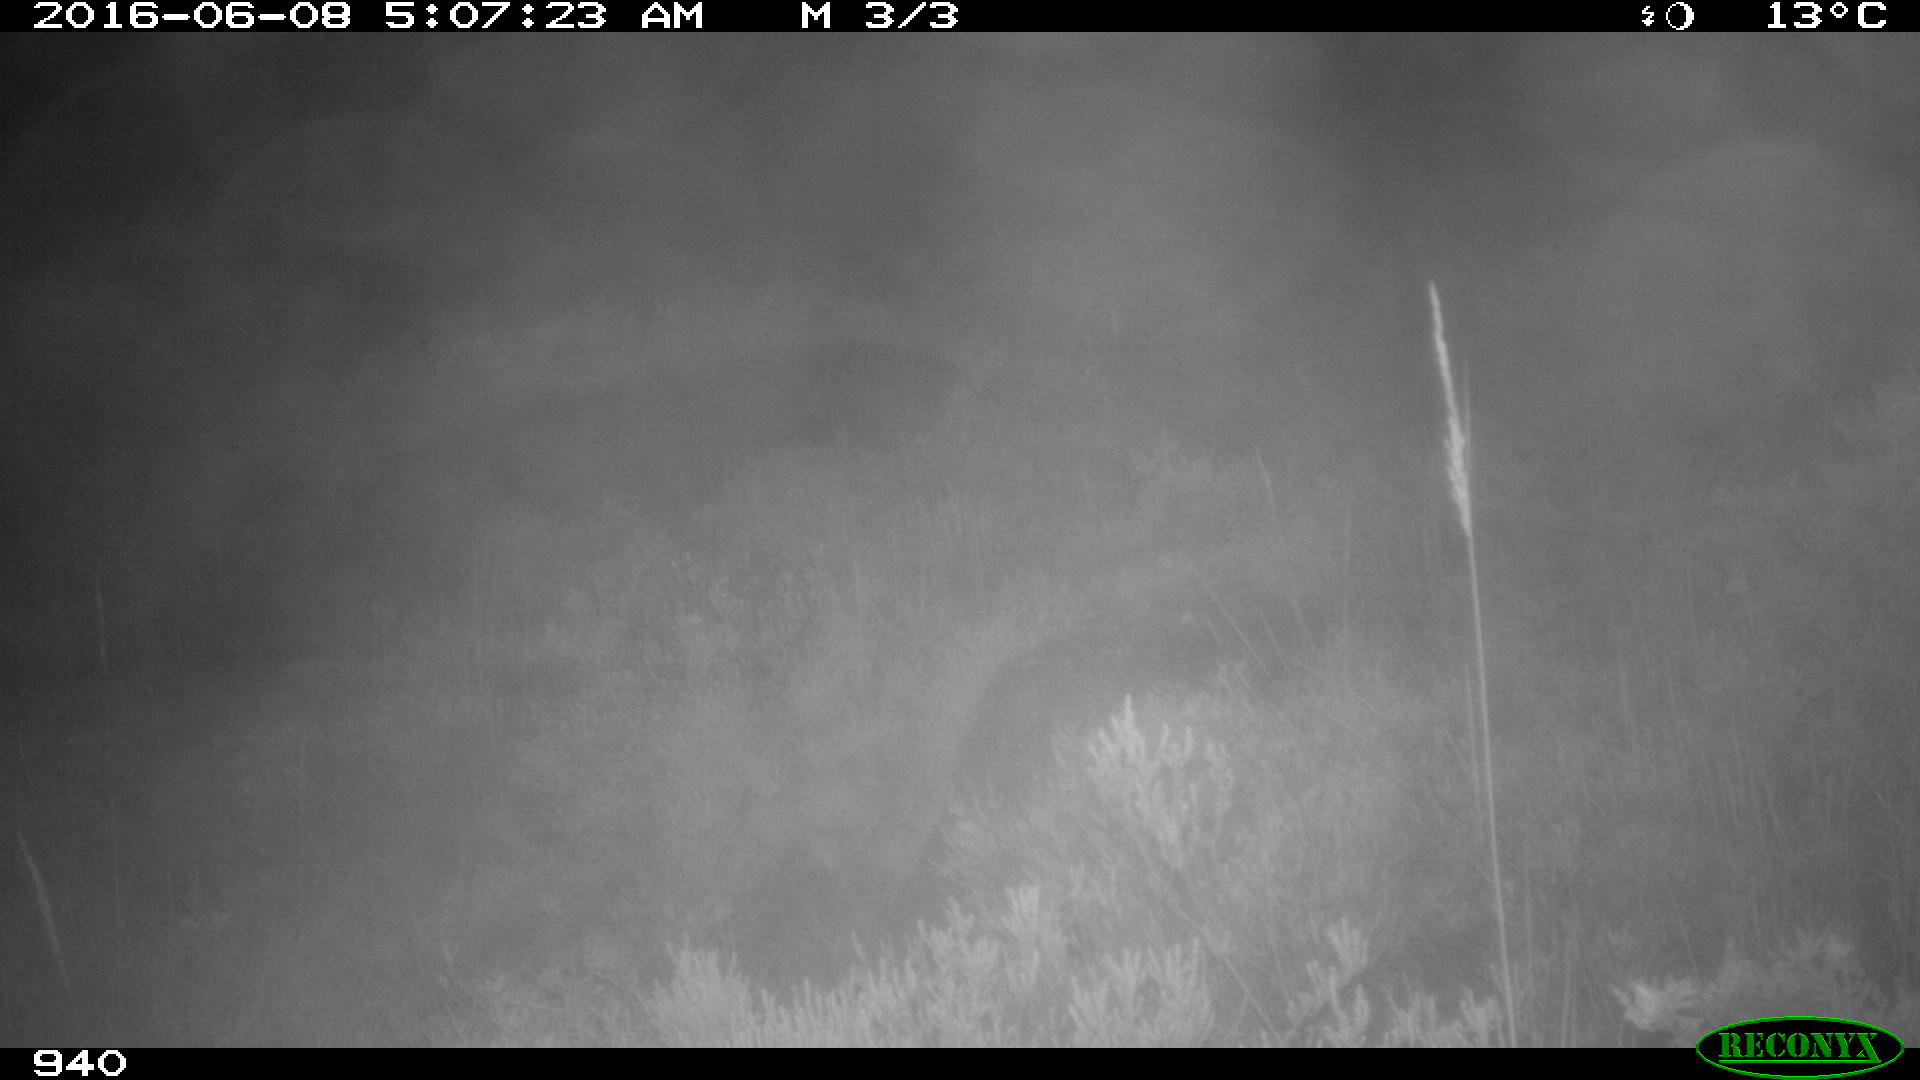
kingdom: Animalia
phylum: Chordata
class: Mammalia
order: Artiodactyla
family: Cervidae
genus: Capreolus
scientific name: Capreolus capreolus
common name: Western roe deer
